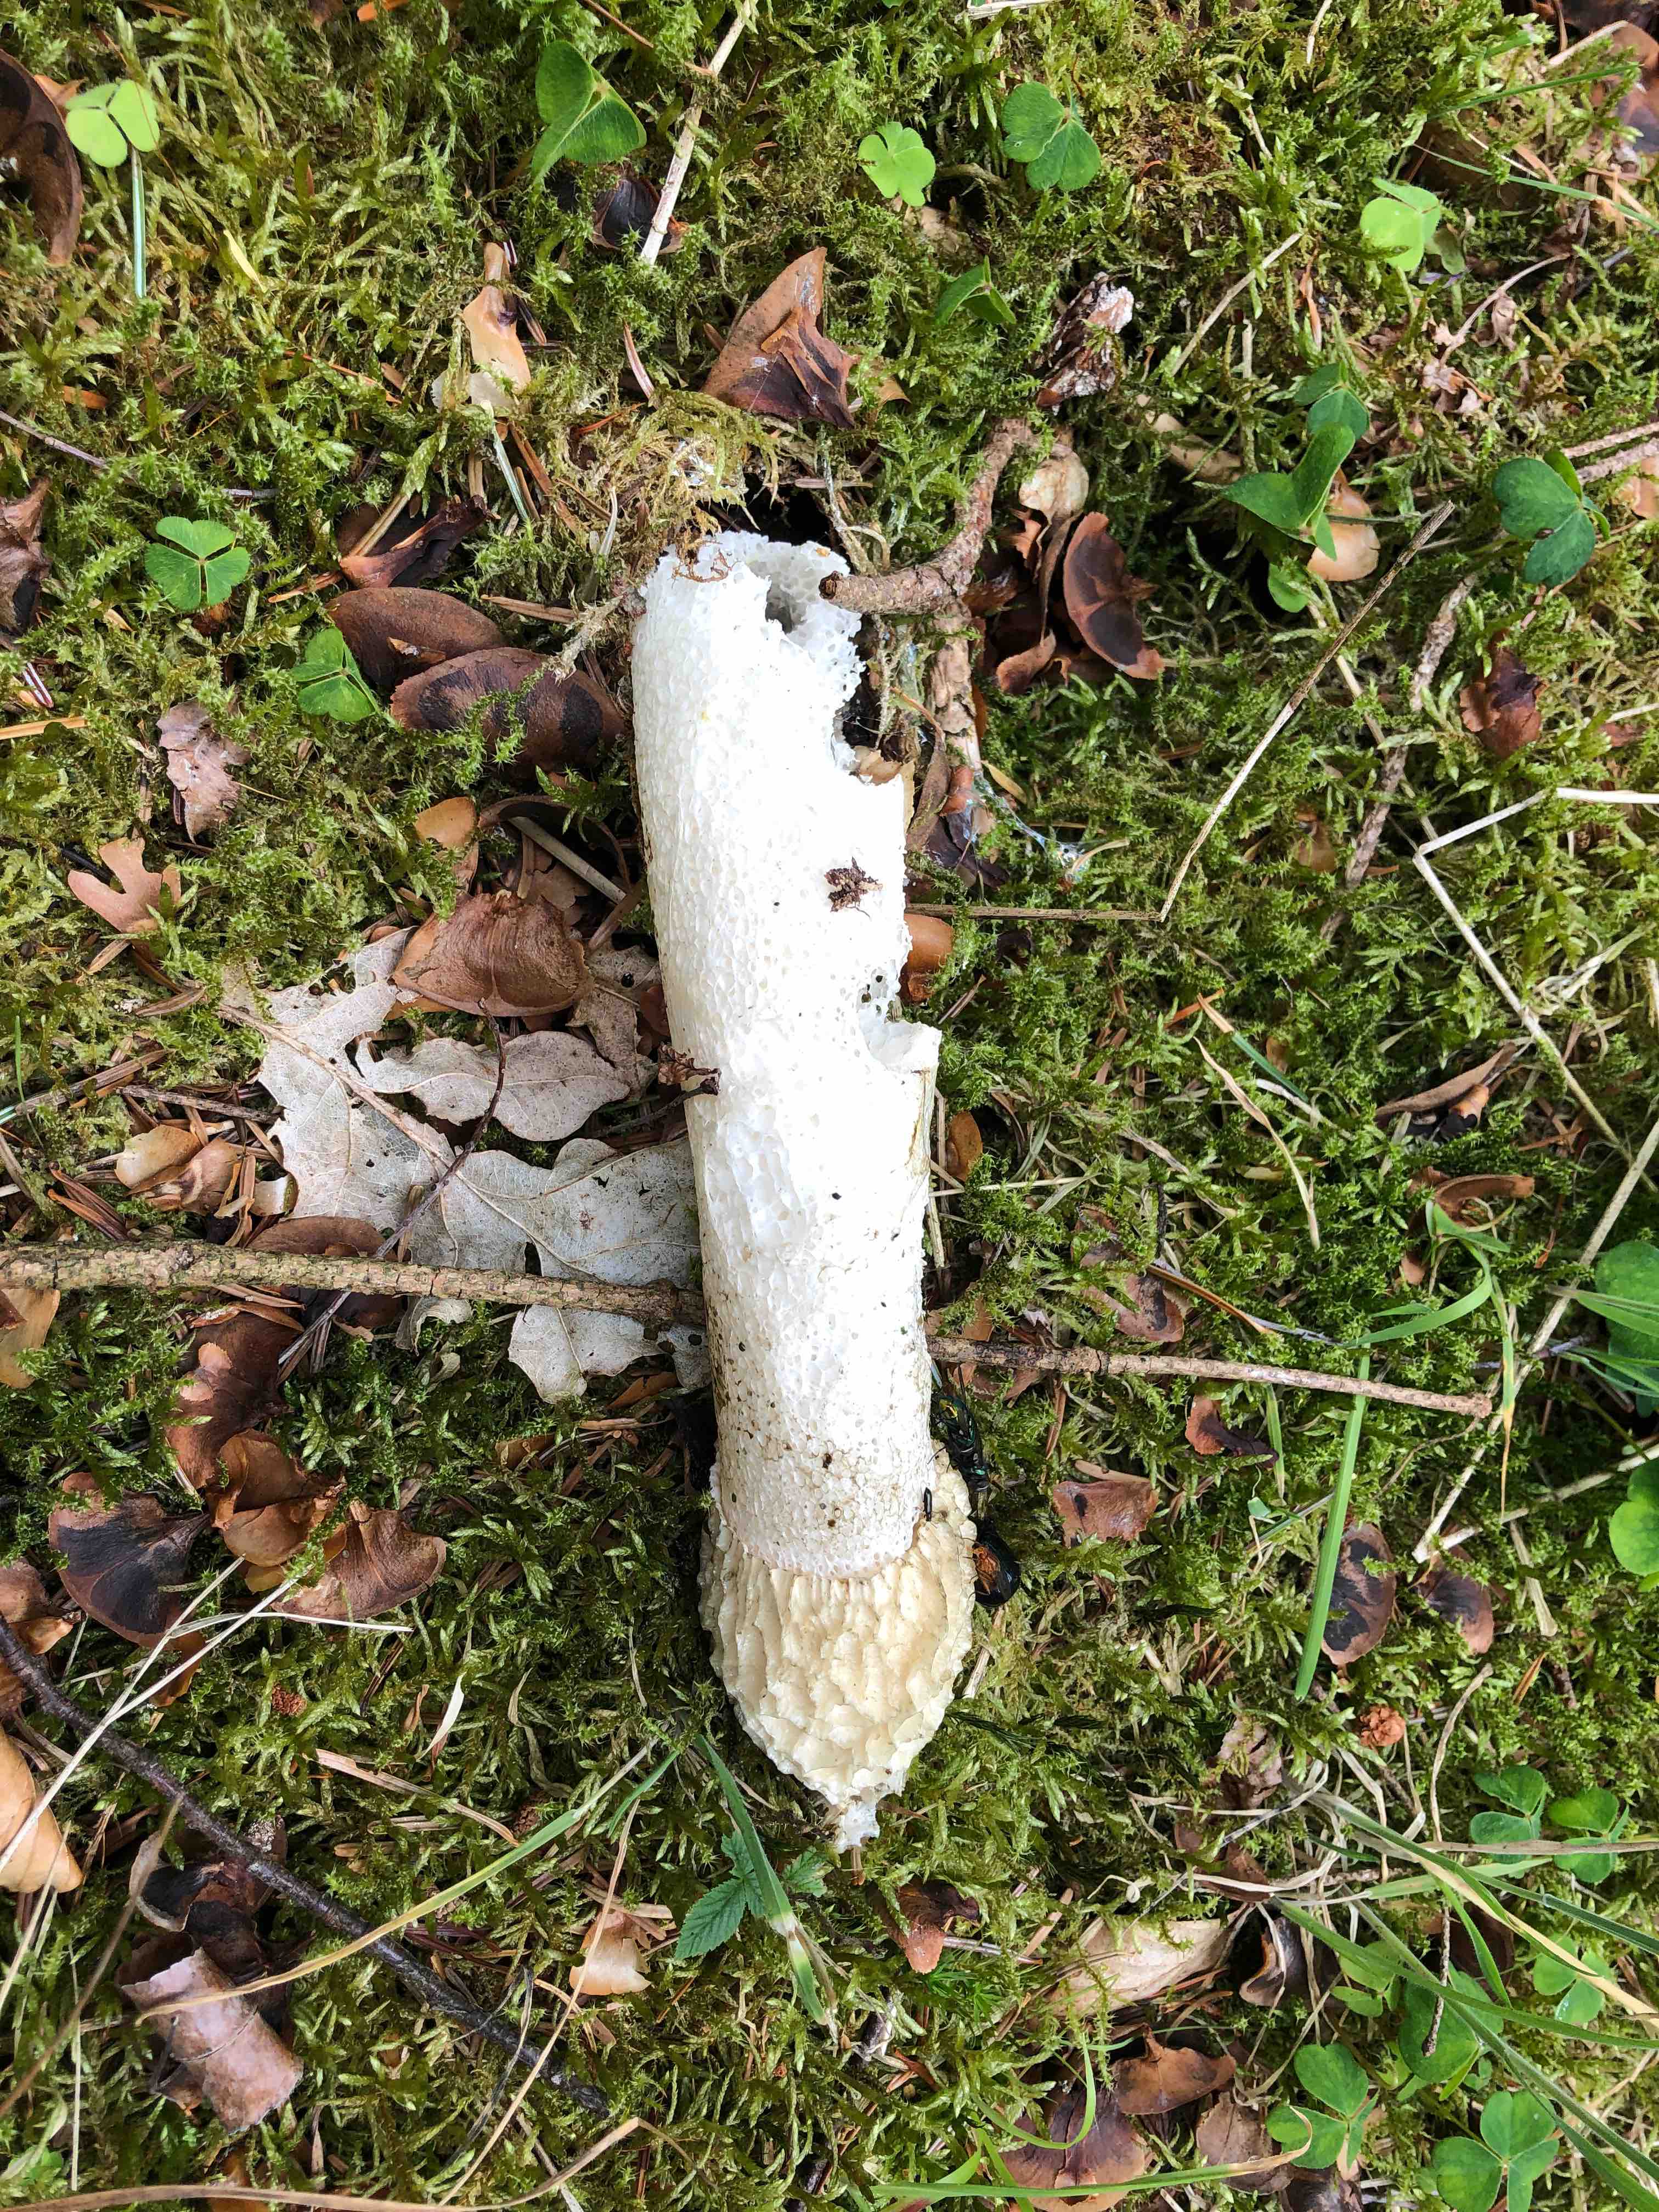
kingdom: Fungi
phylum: Basidiomycota
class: Agaricomycetes
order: Phallales
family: Phallaceae
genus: Phallus
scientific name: Phallus impudicus
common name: almindelig stinksvamp
